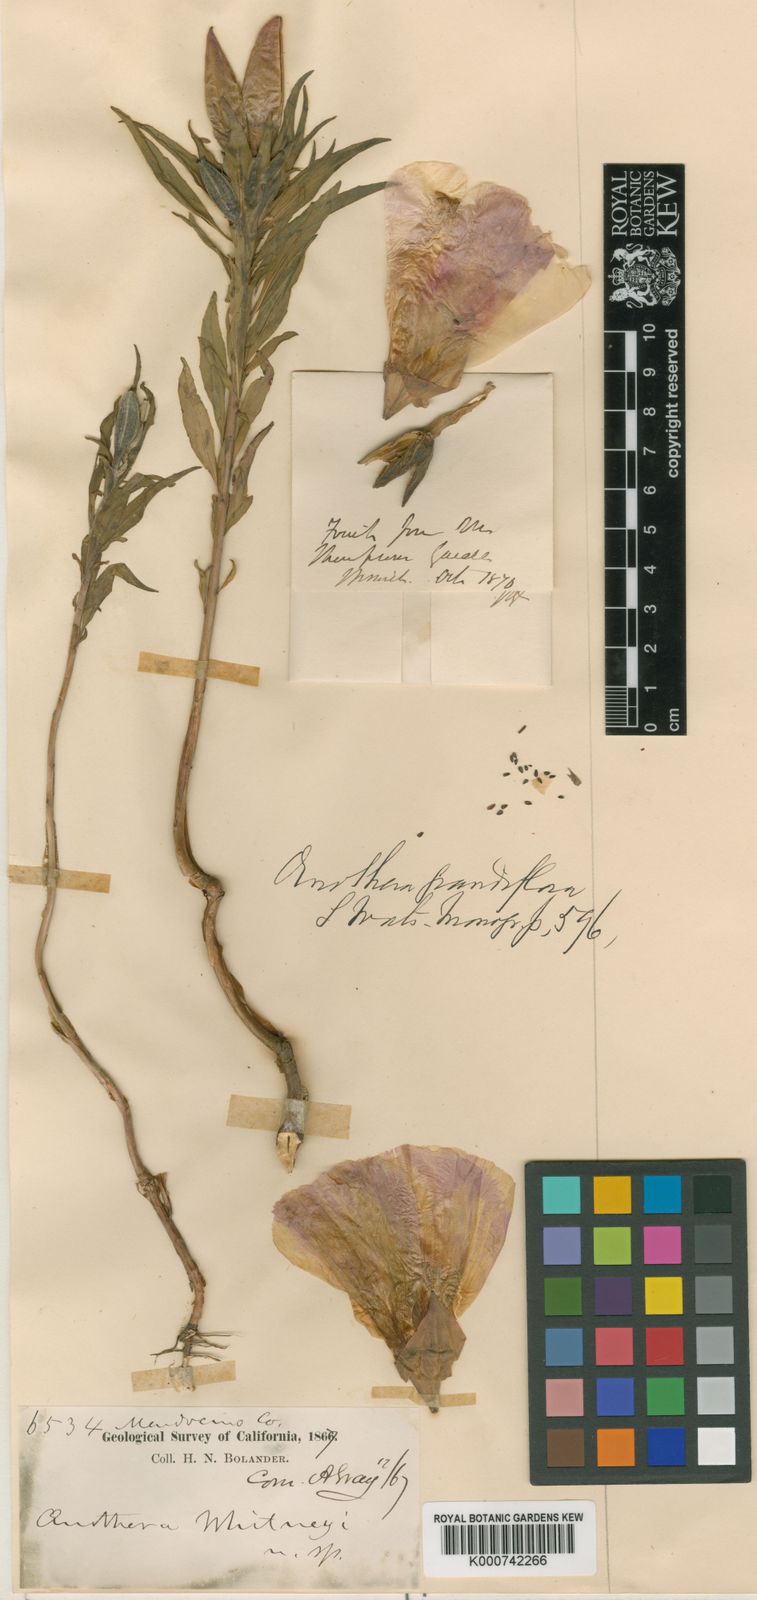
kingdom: Plantae
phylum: Tracheophyta
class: Magnoliopsida
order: Myrtales
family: Onagraceae
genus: Clarkia
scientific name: Clarkia amoena
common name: Godetia
